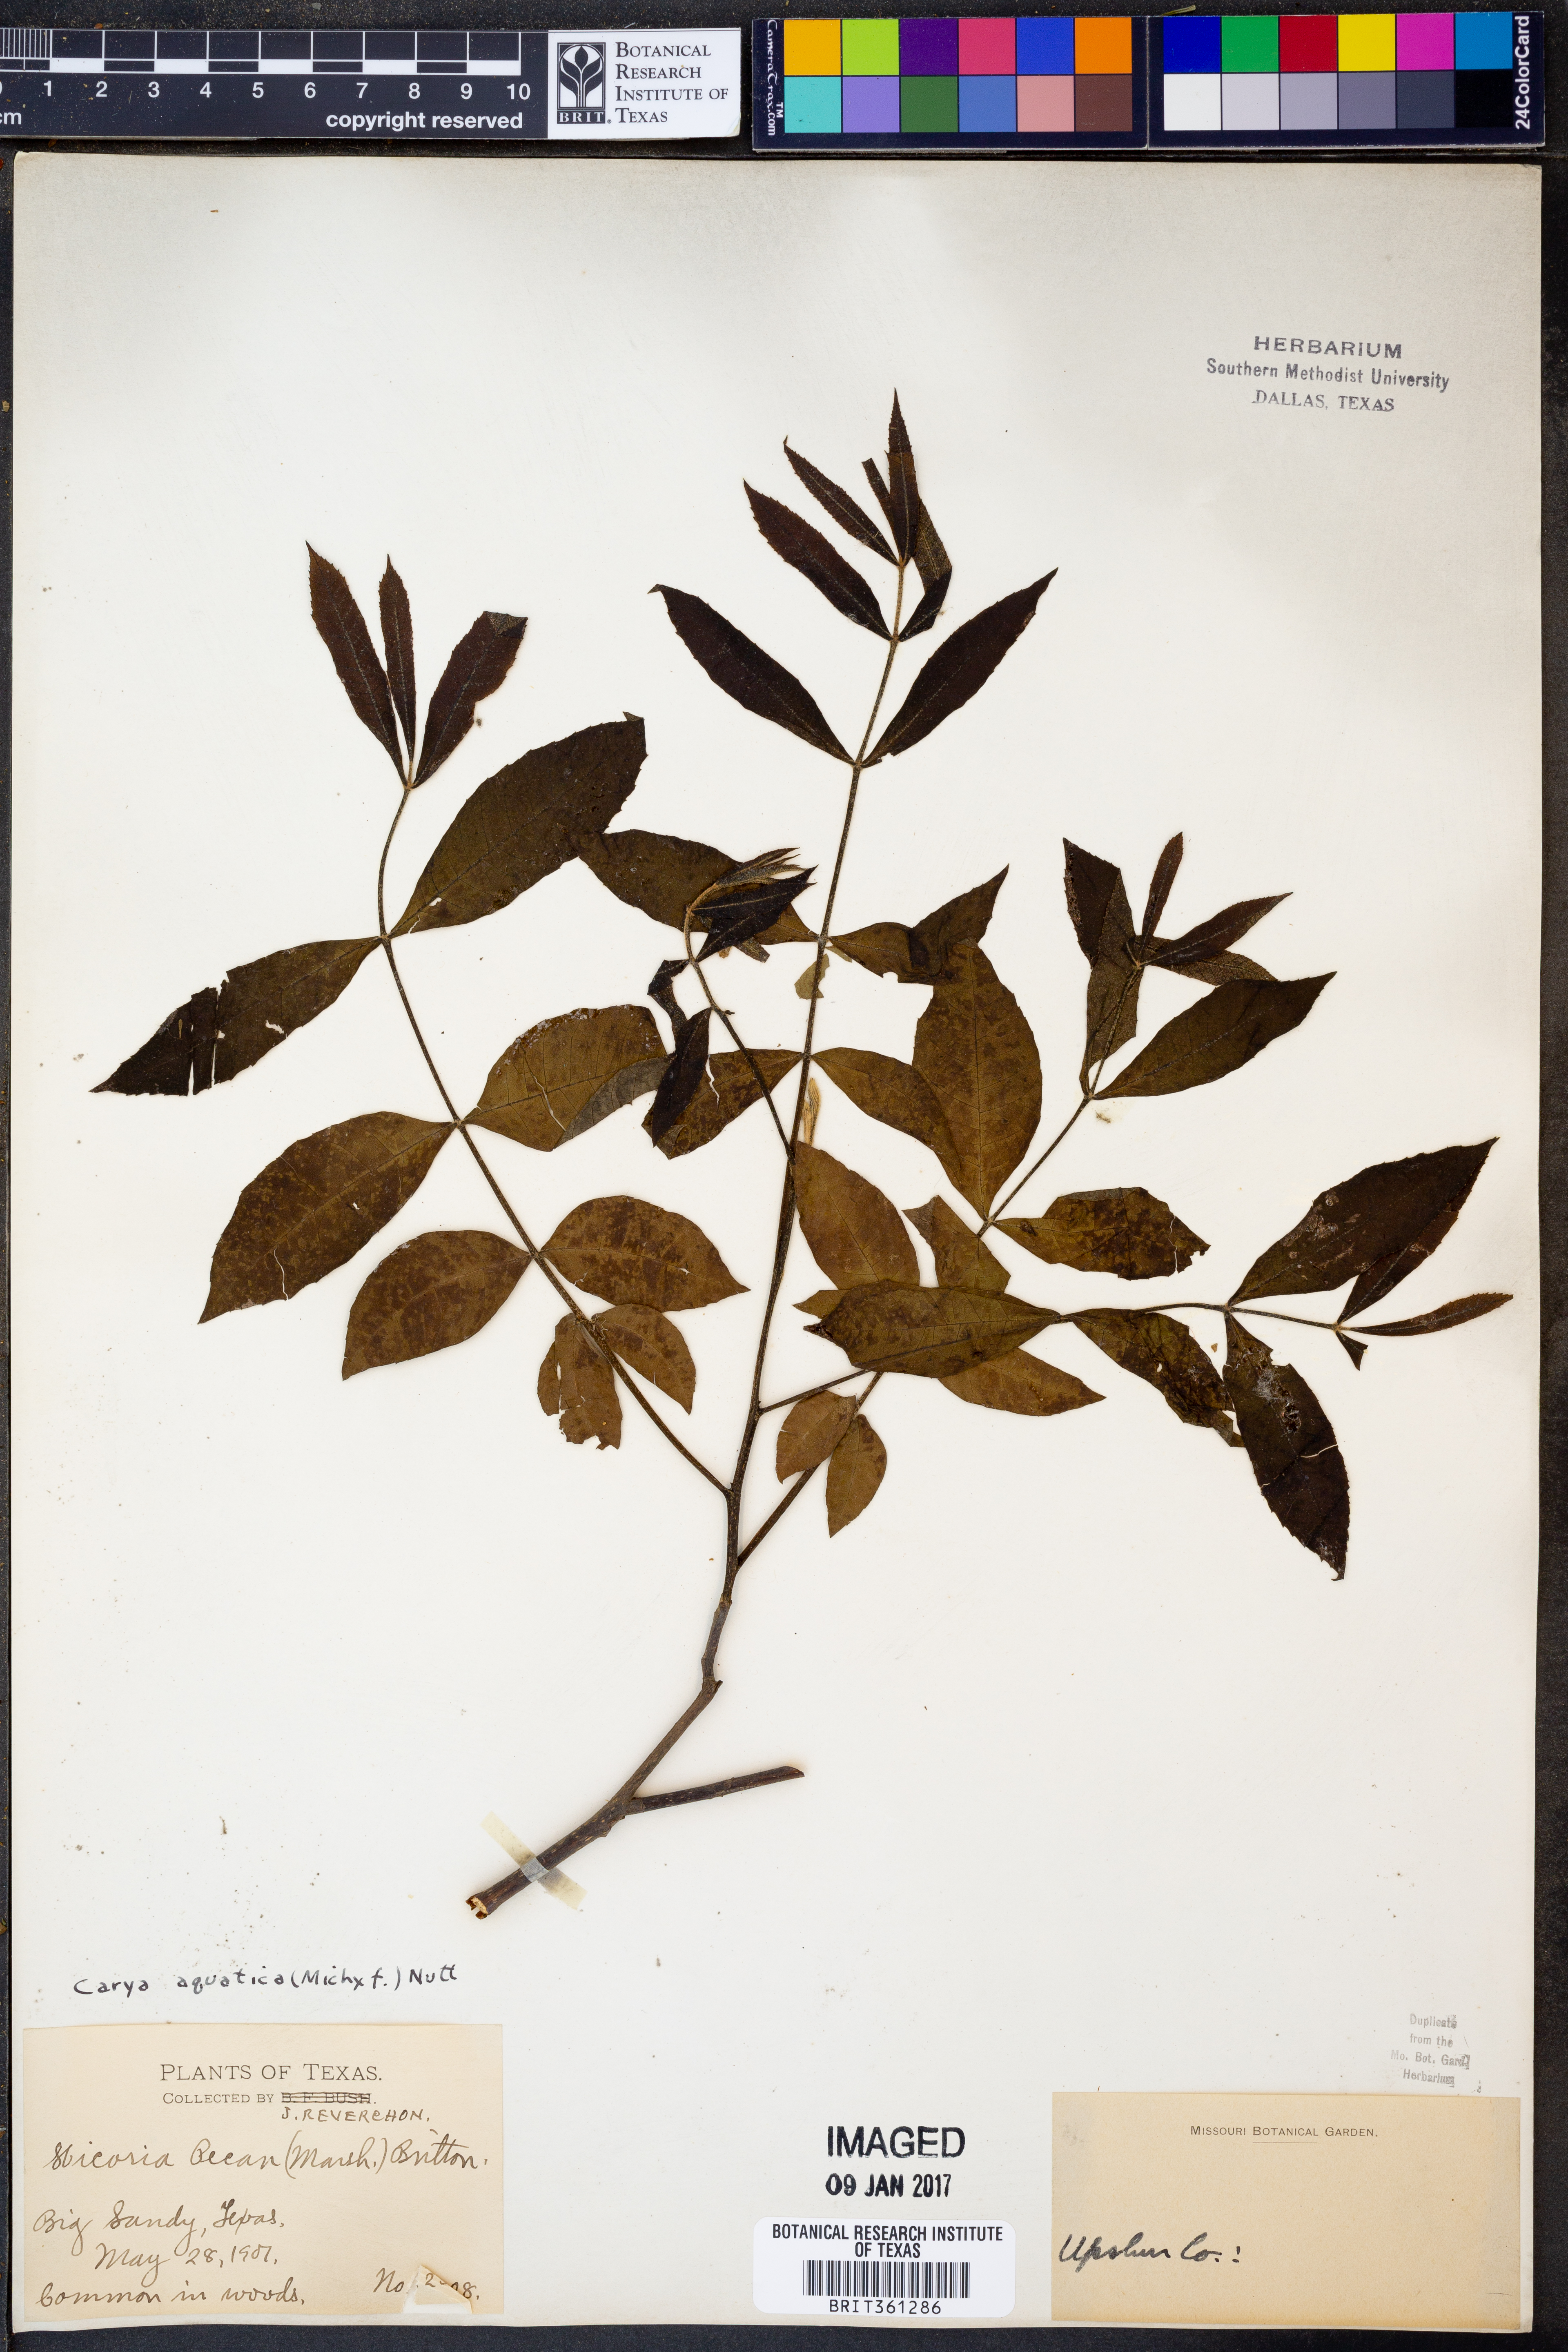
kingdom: Plantae
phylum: Tracheophyta
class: Magnoliopsida
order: Fagales
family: Juglandaceae
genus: Carya
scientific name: Carya aquatica
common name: Water hickory
